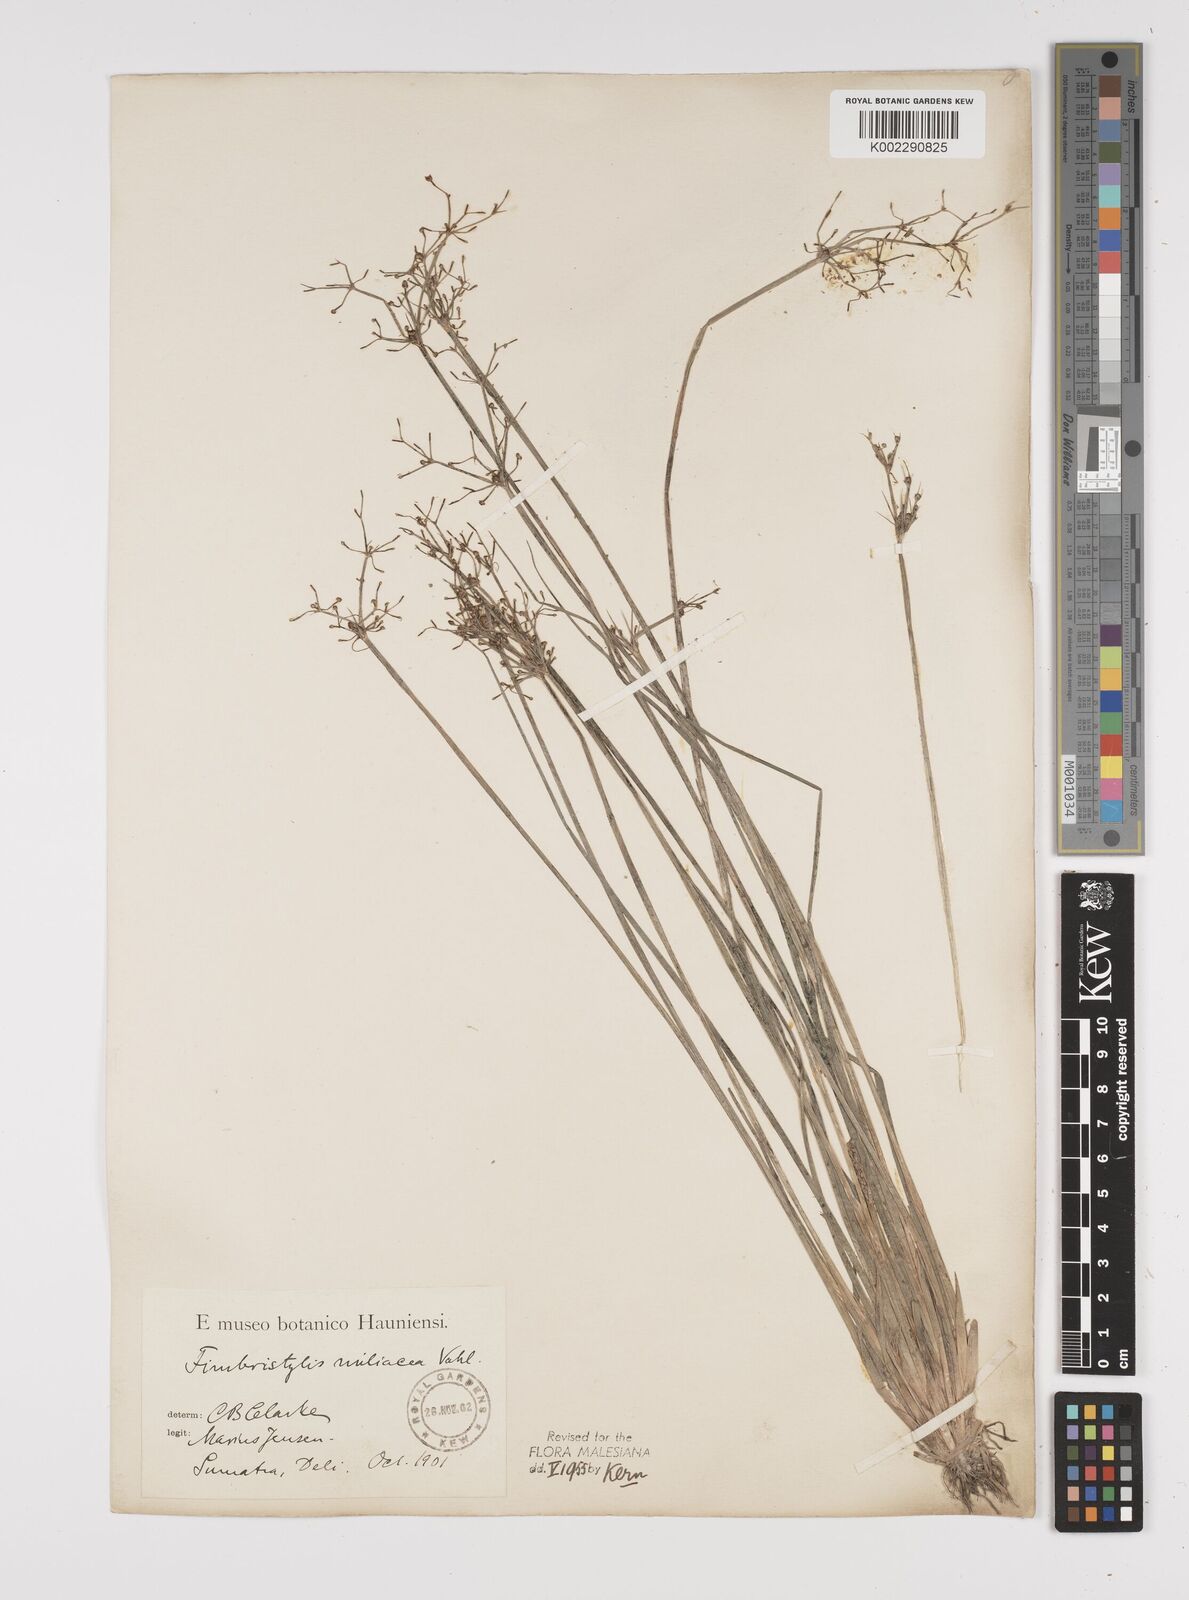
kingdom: Plantae
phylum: Tracheophyta
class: Liliopsida
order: Poales
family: Cyperaceae
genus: Fimbristylis
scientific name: Fimbristylis littoralis
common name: Fimbry
